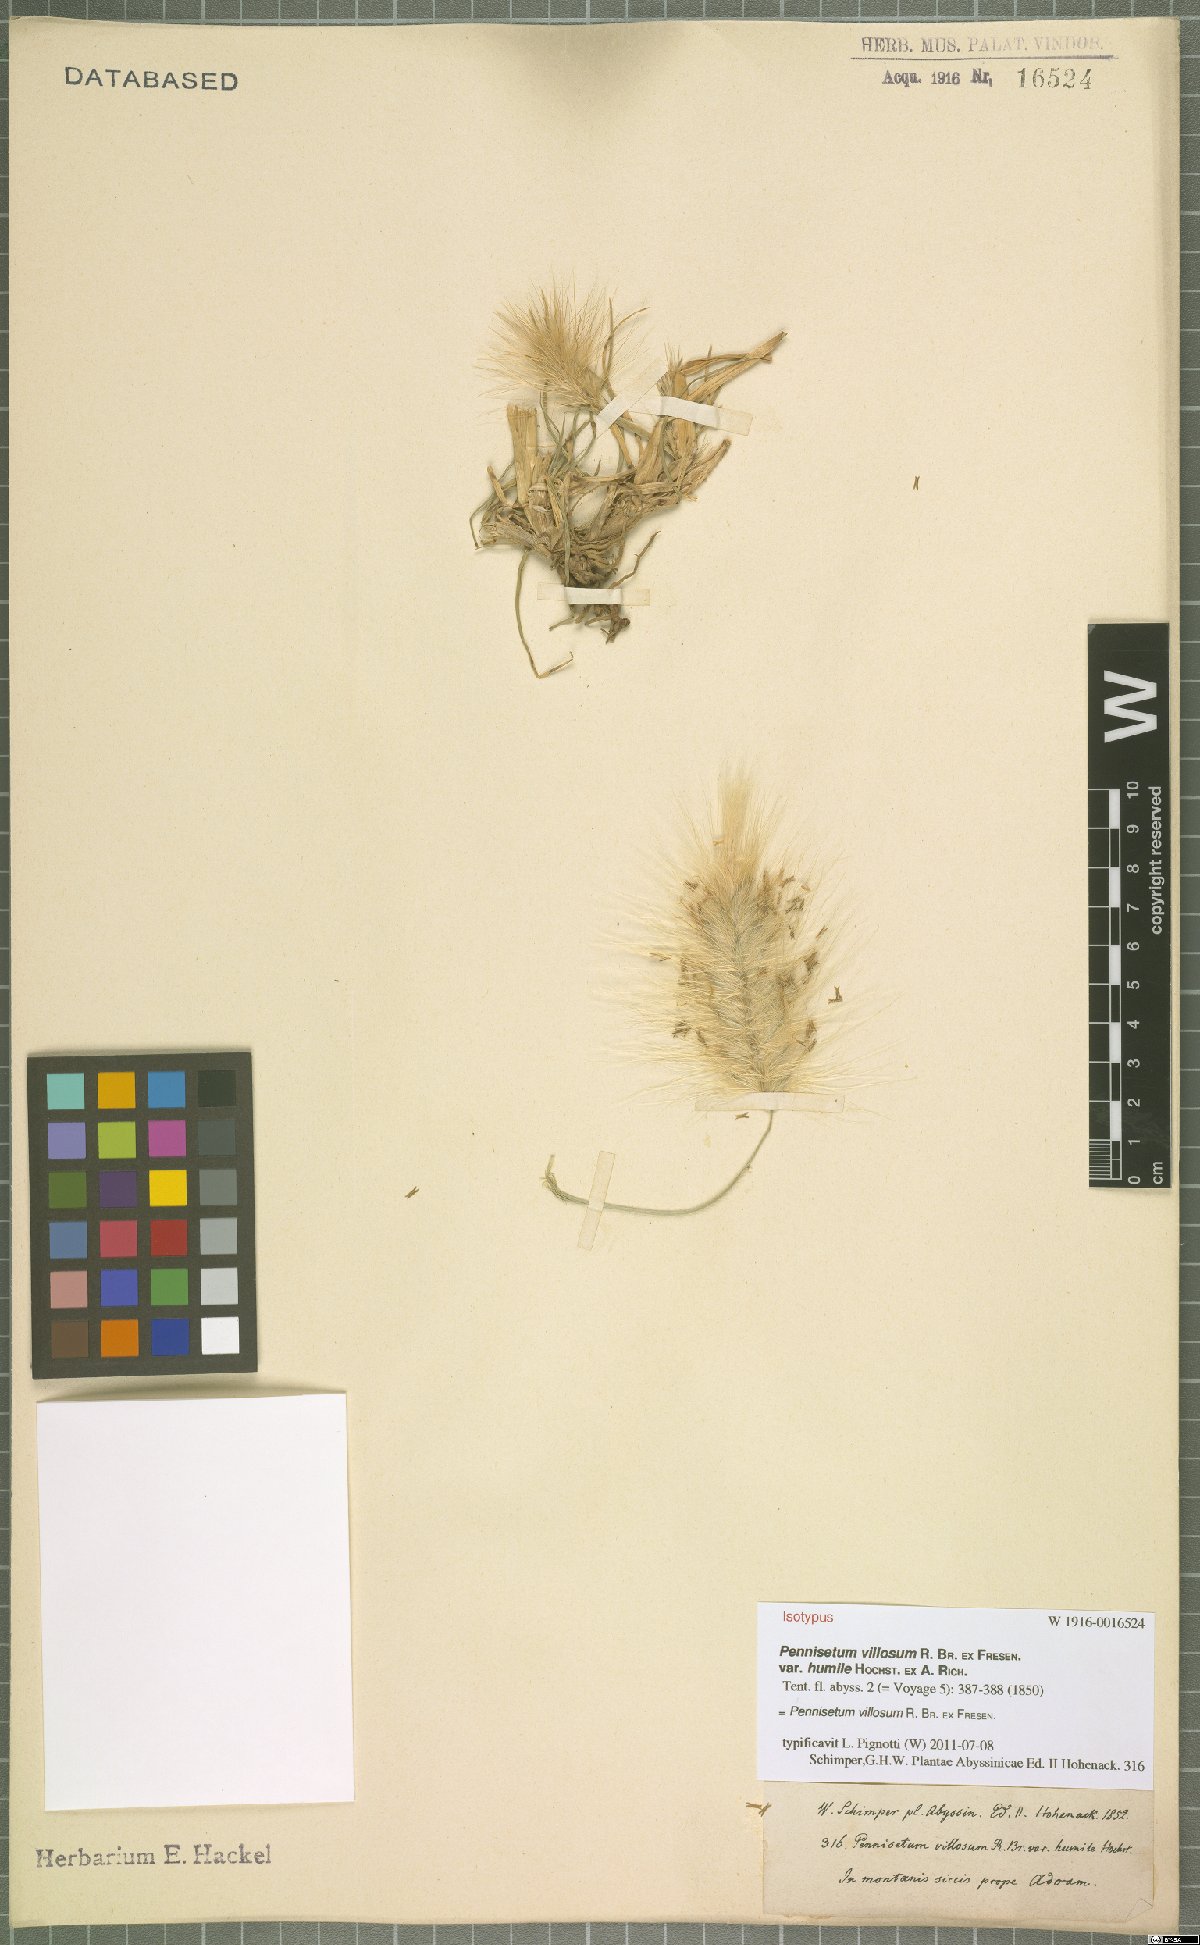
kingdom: Plantae
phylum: Tracheophyta
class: Liliopsida
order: Poales
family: Poaceae
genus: Cenchrus
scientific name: Cenchrus longisetus
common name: Feathertop
